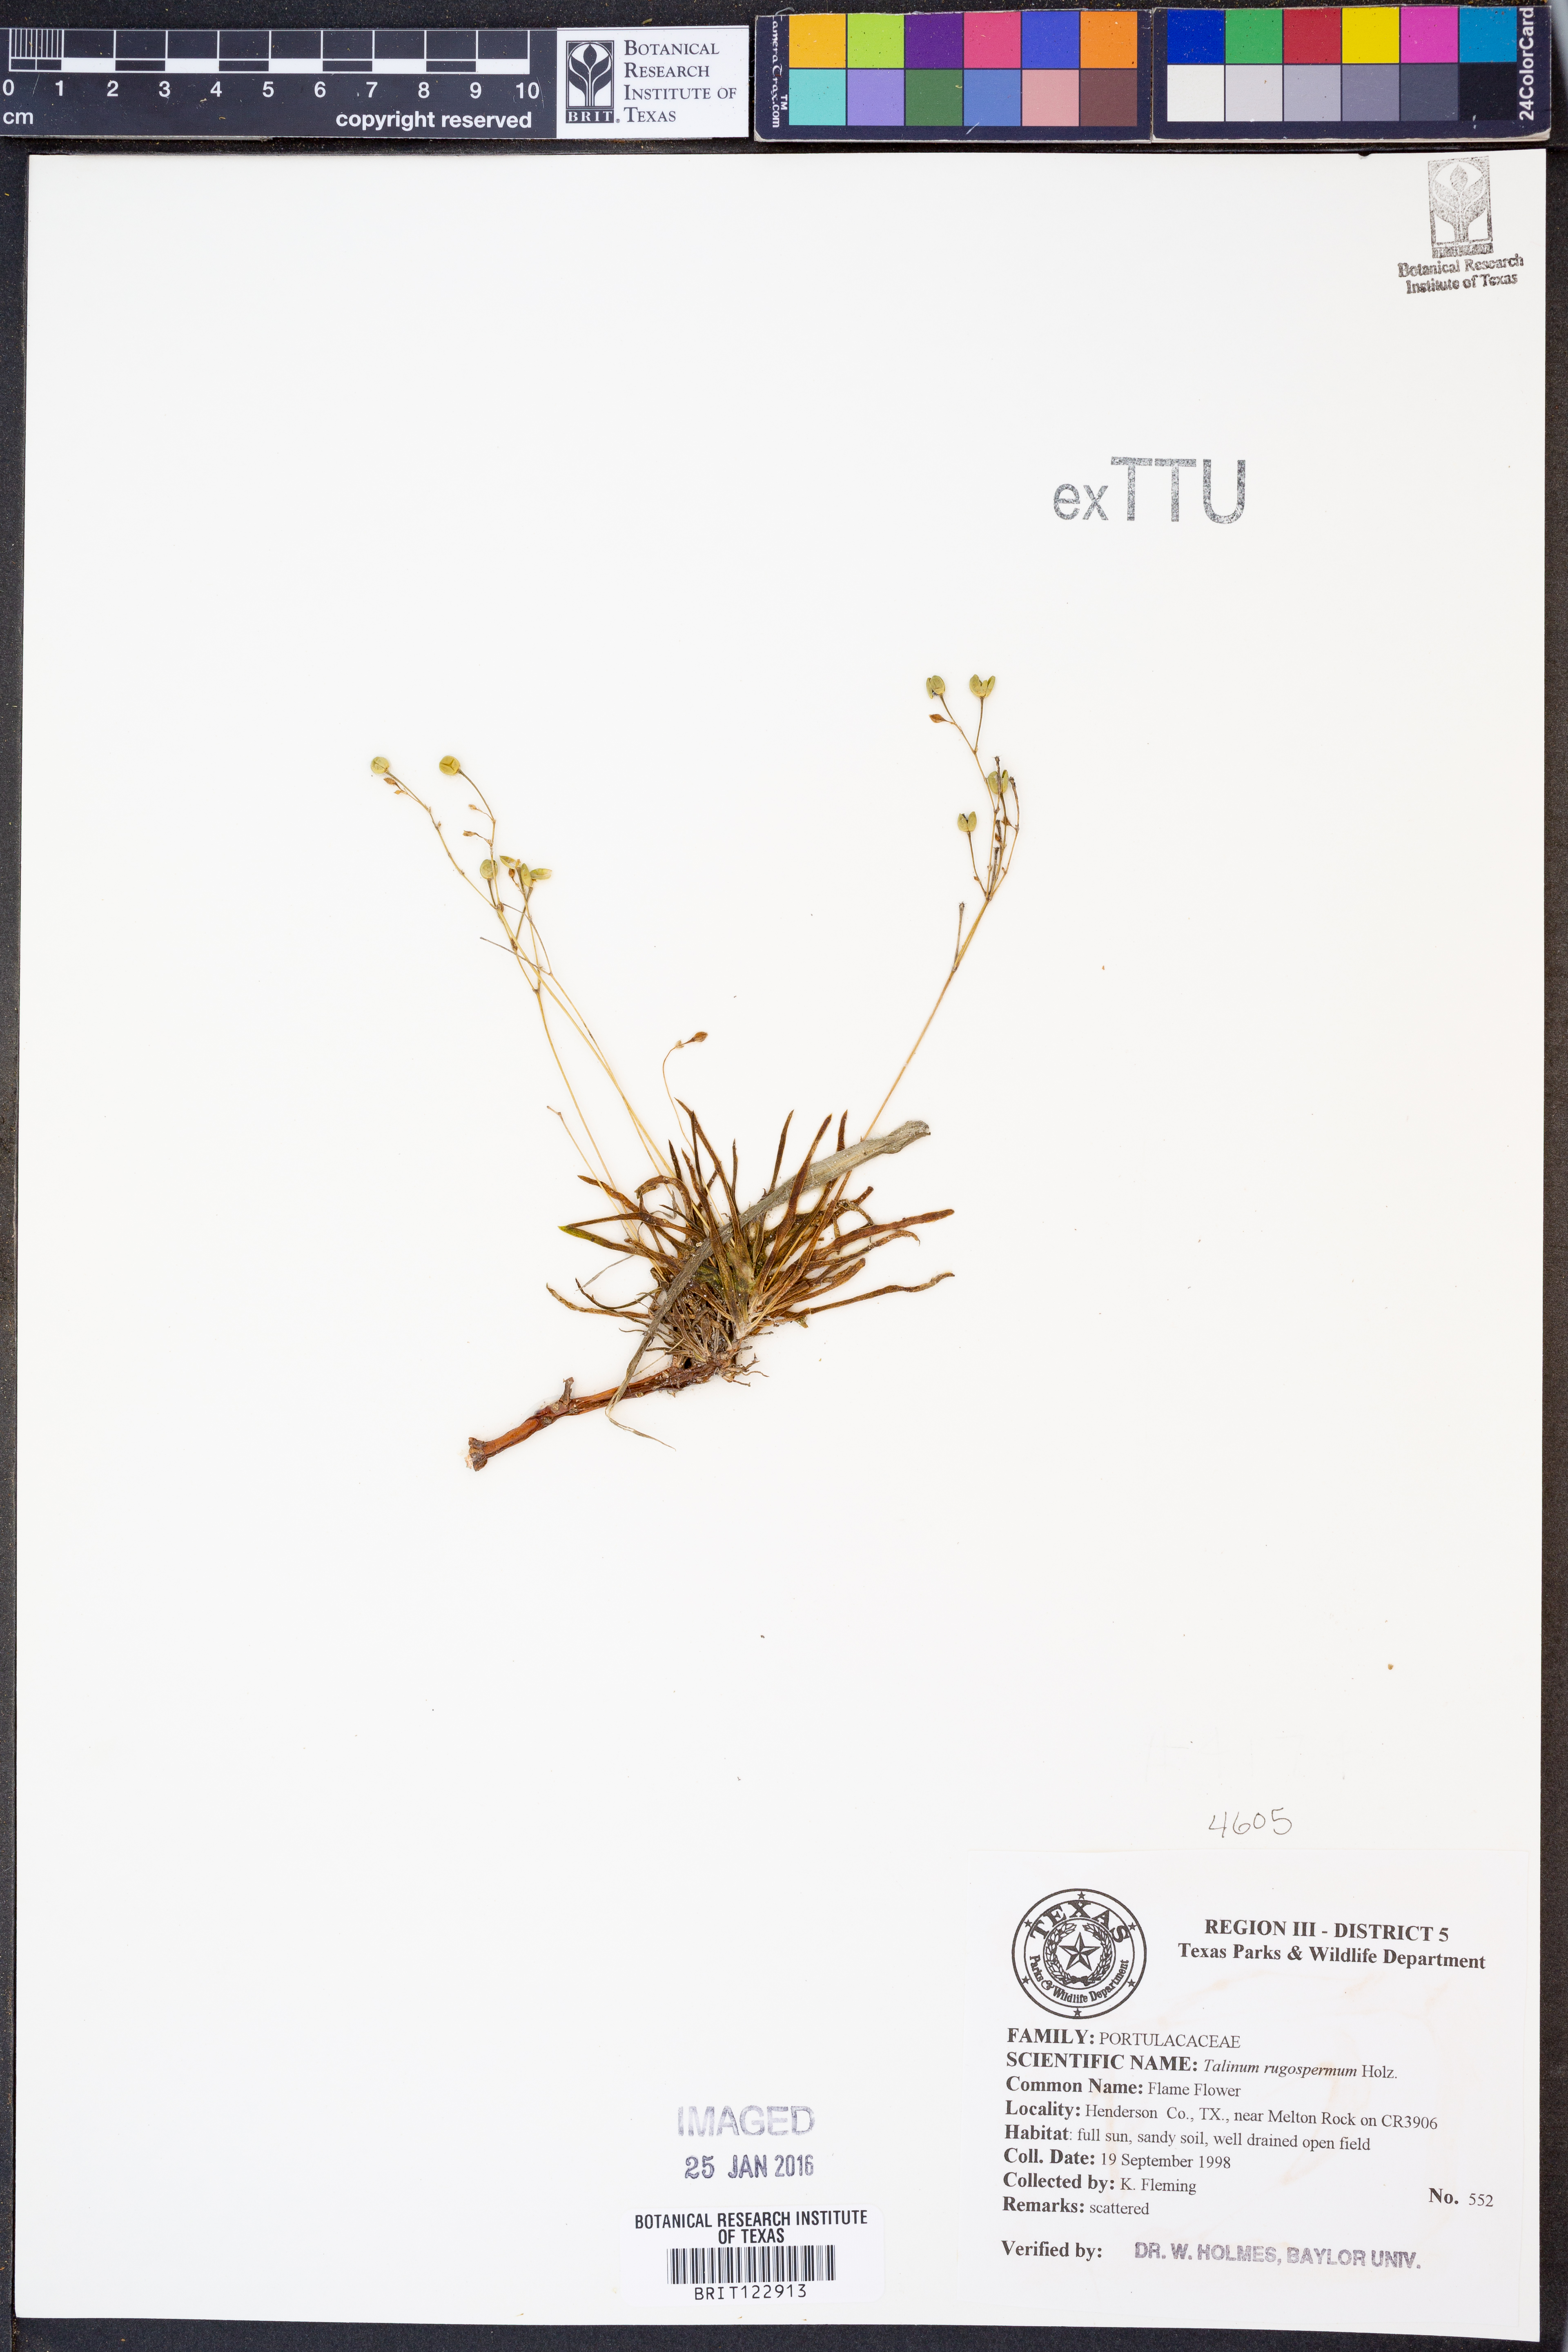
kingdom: Plantae
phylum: Tracheophyta
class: Magnoliopsida
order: Caryophyllales
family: Montiaceae
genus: Phemeranthus
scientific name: Phemeranthus rugospermus
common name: Prairie fameflower
